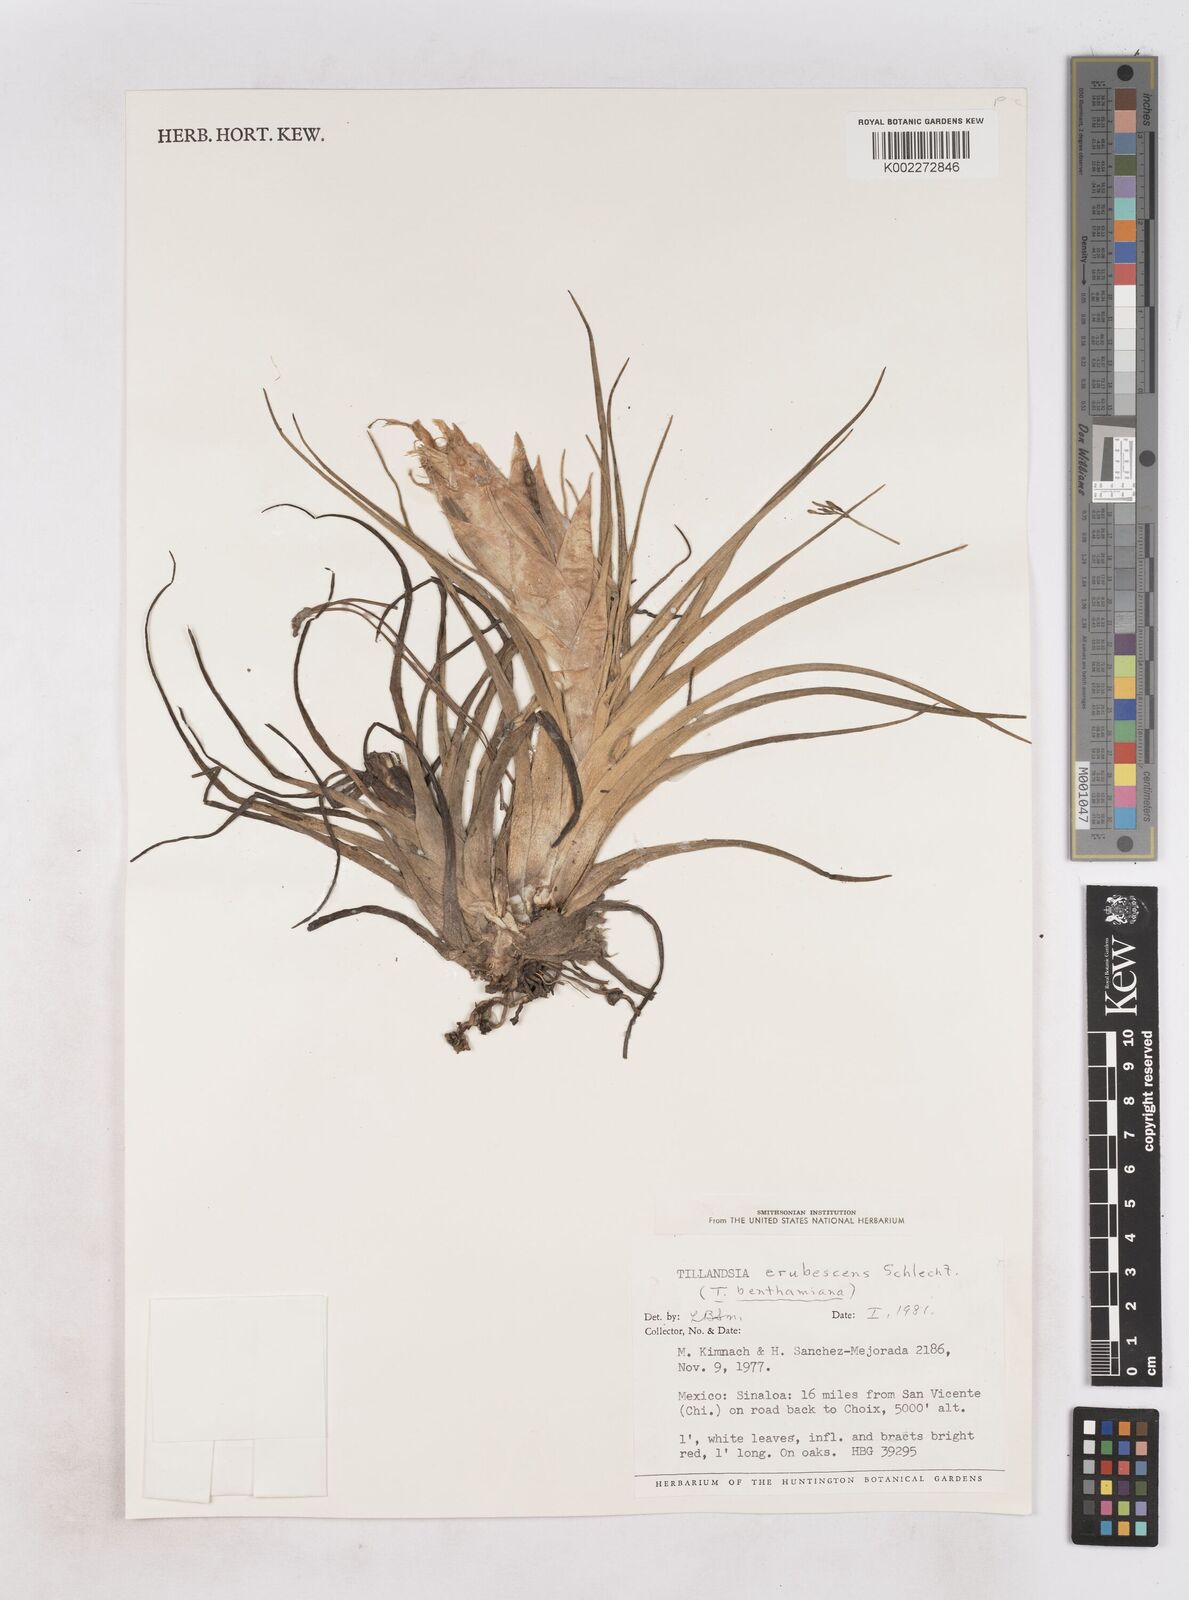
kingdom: Plantae
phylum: Tracheophyta
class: Liliopsida
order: Poales
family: Bromeliaceae
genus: Tillandsia
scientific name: Tillandsia erubescens
